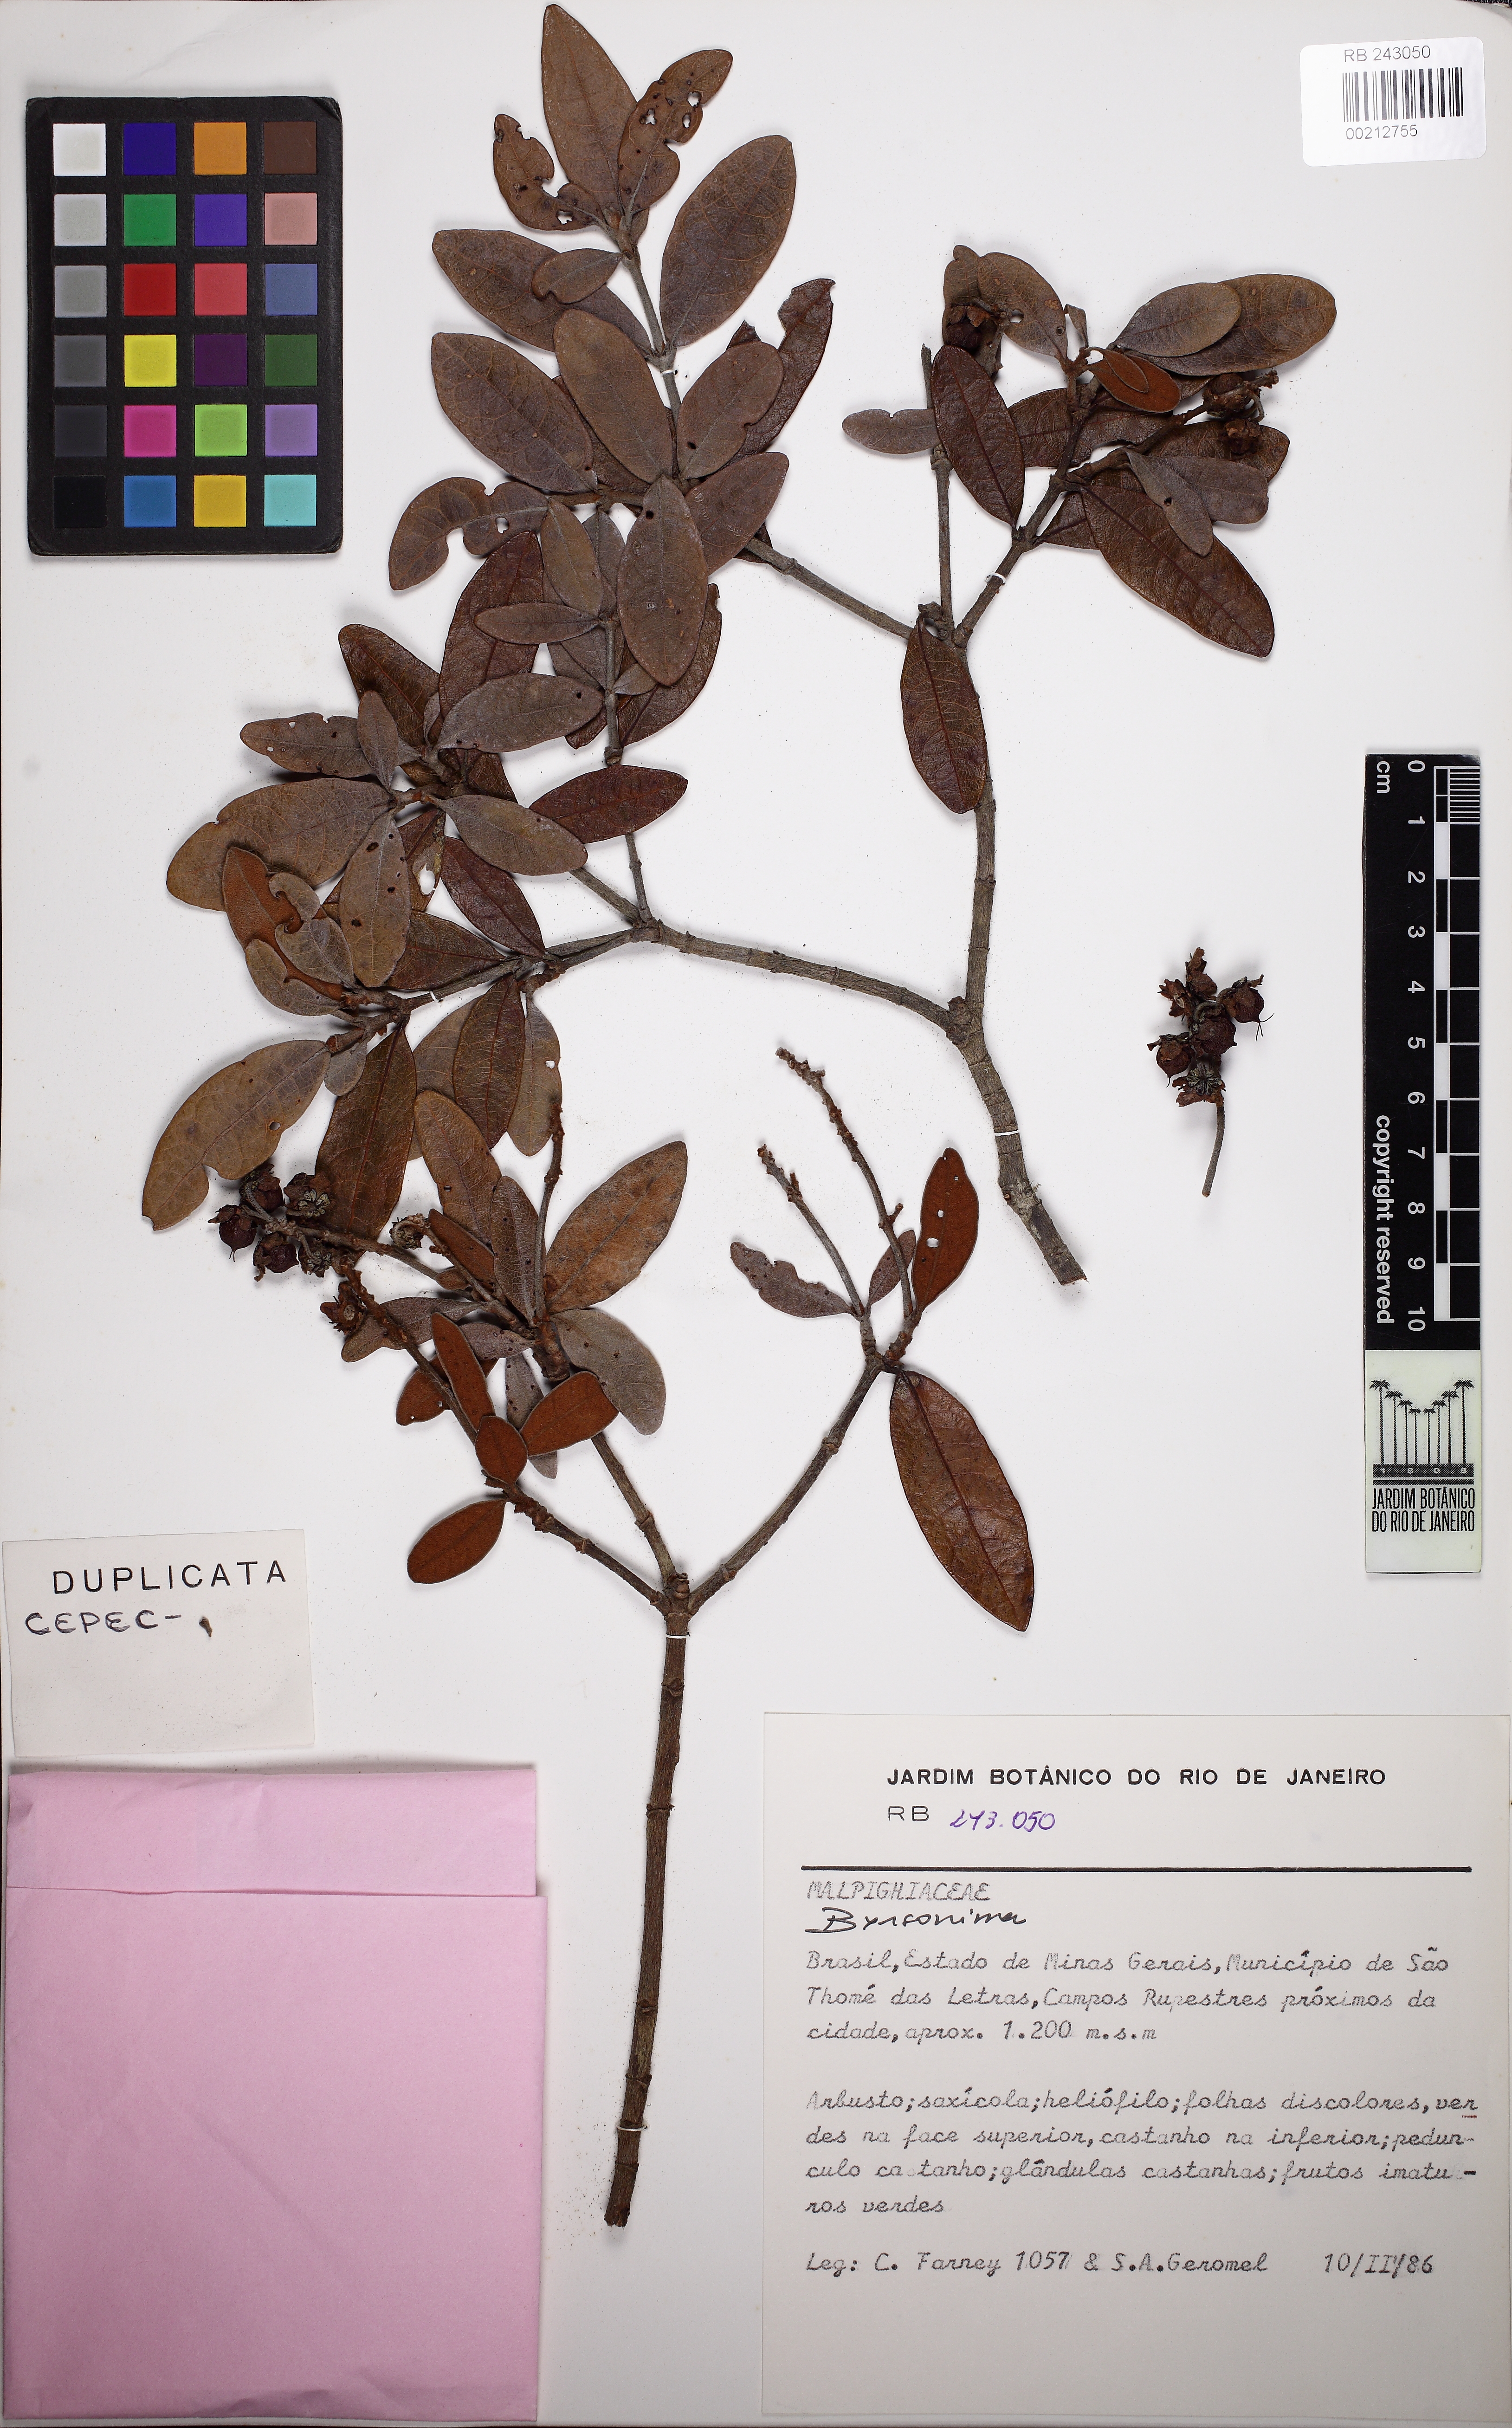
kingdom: Plantae
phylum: Tracheophyta
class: Magnoliopsida
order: Malpighiales
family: Malpighiaceae
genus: Byrsonima
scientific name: Byrsonima variabilis
